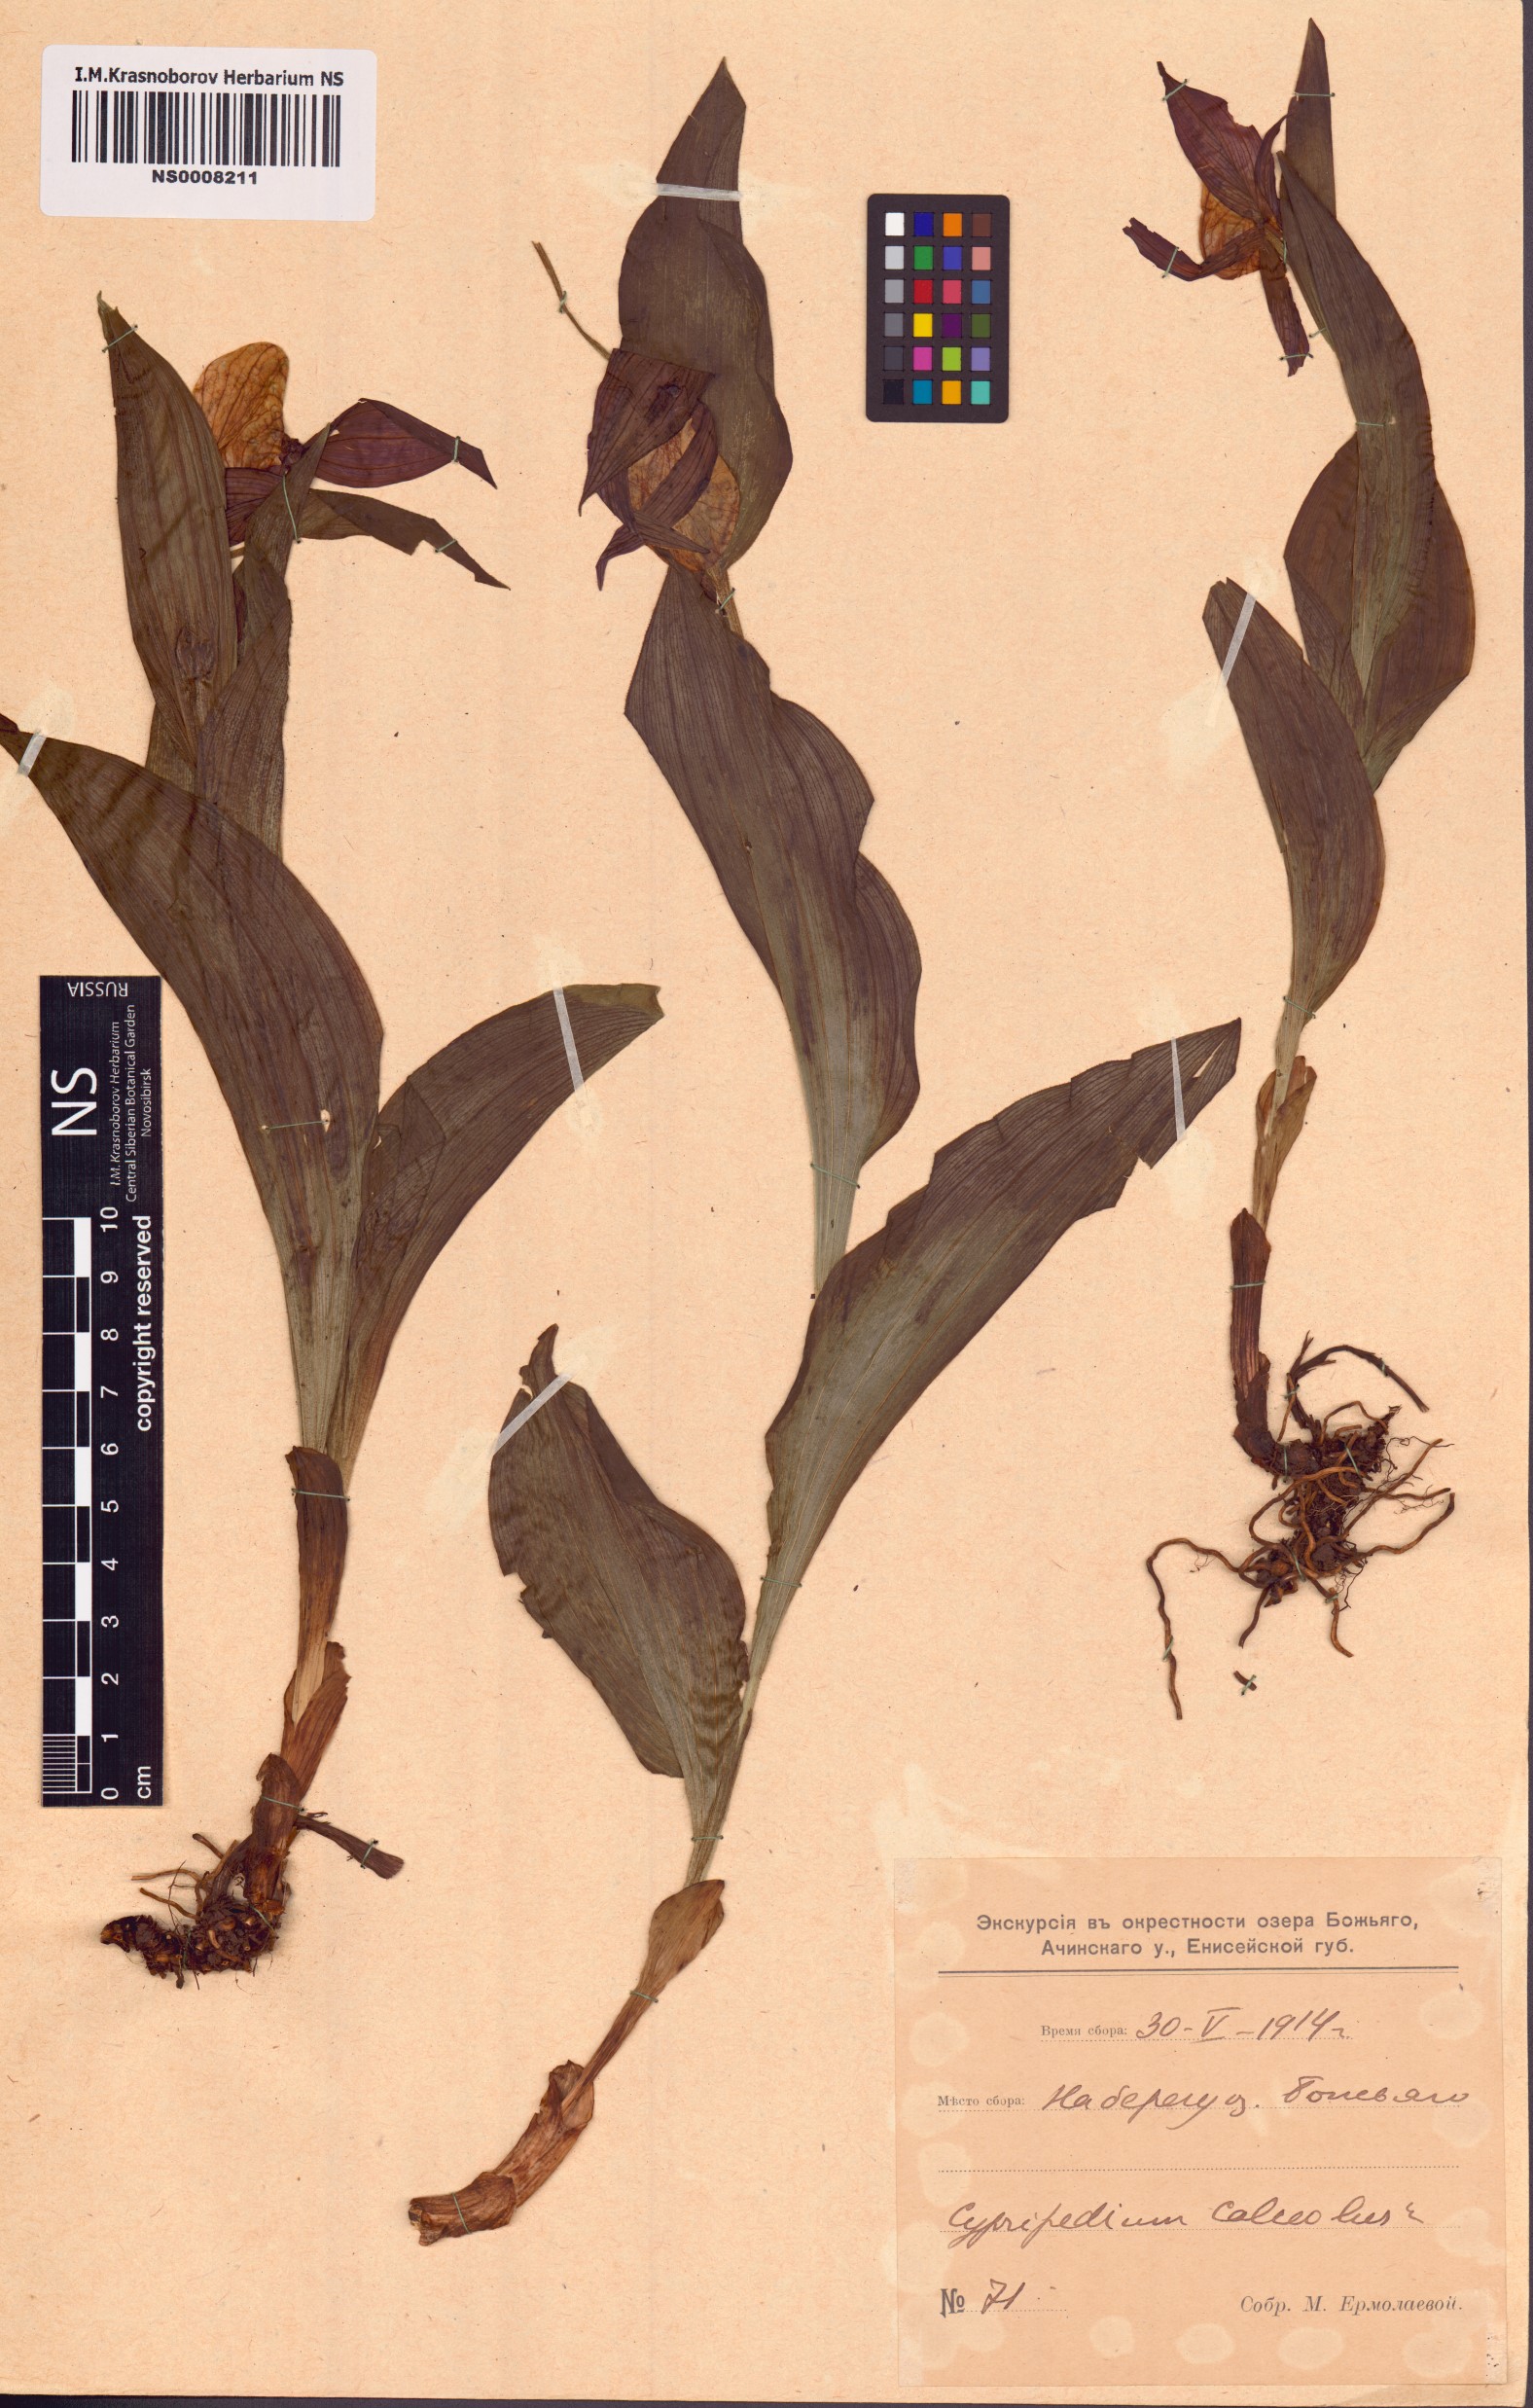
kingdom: Plantae
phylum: Tracheophyta
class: Liliopsida
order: Asparagales
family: Orchidaceae
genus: Cypripedium
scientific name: Cypripedium calceolus
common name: Lady's-slipper
